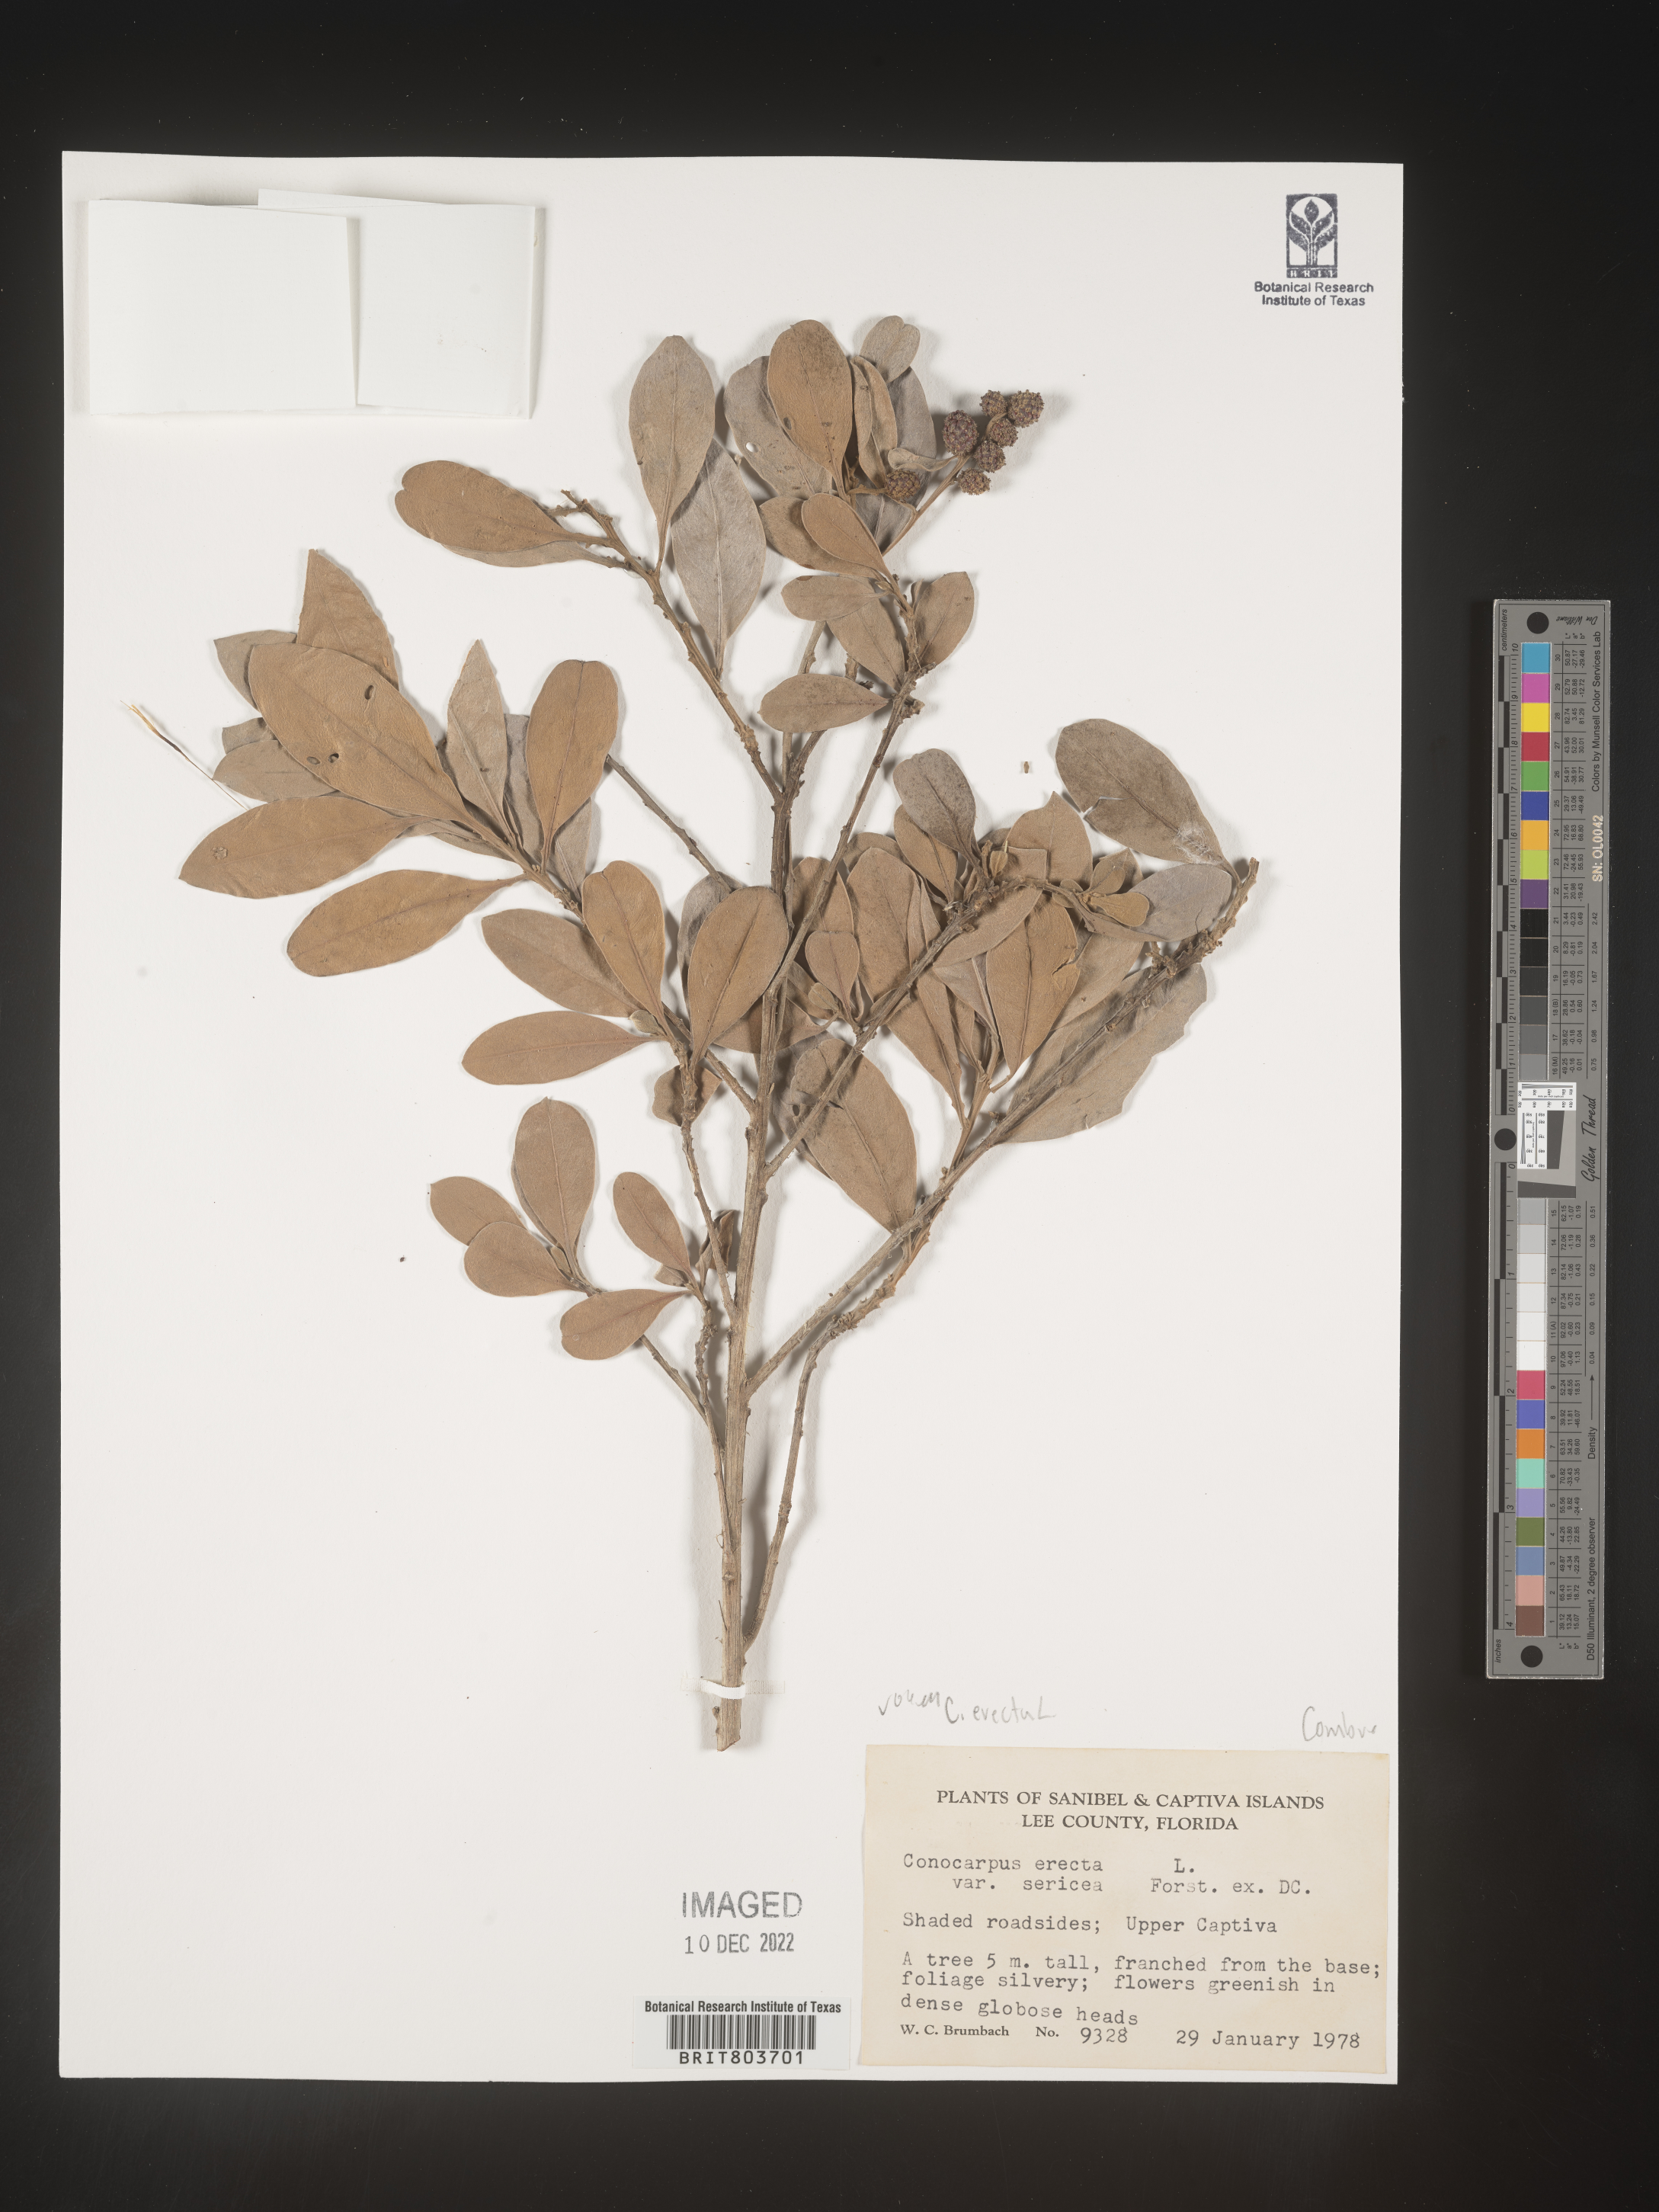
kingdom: Plantae
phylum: Tracheophyta
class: Magnoliopsida
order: Myrtales
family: Combretaceae
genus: Conocarpus
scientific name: Conocarpus erectus
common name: Button mangrove
